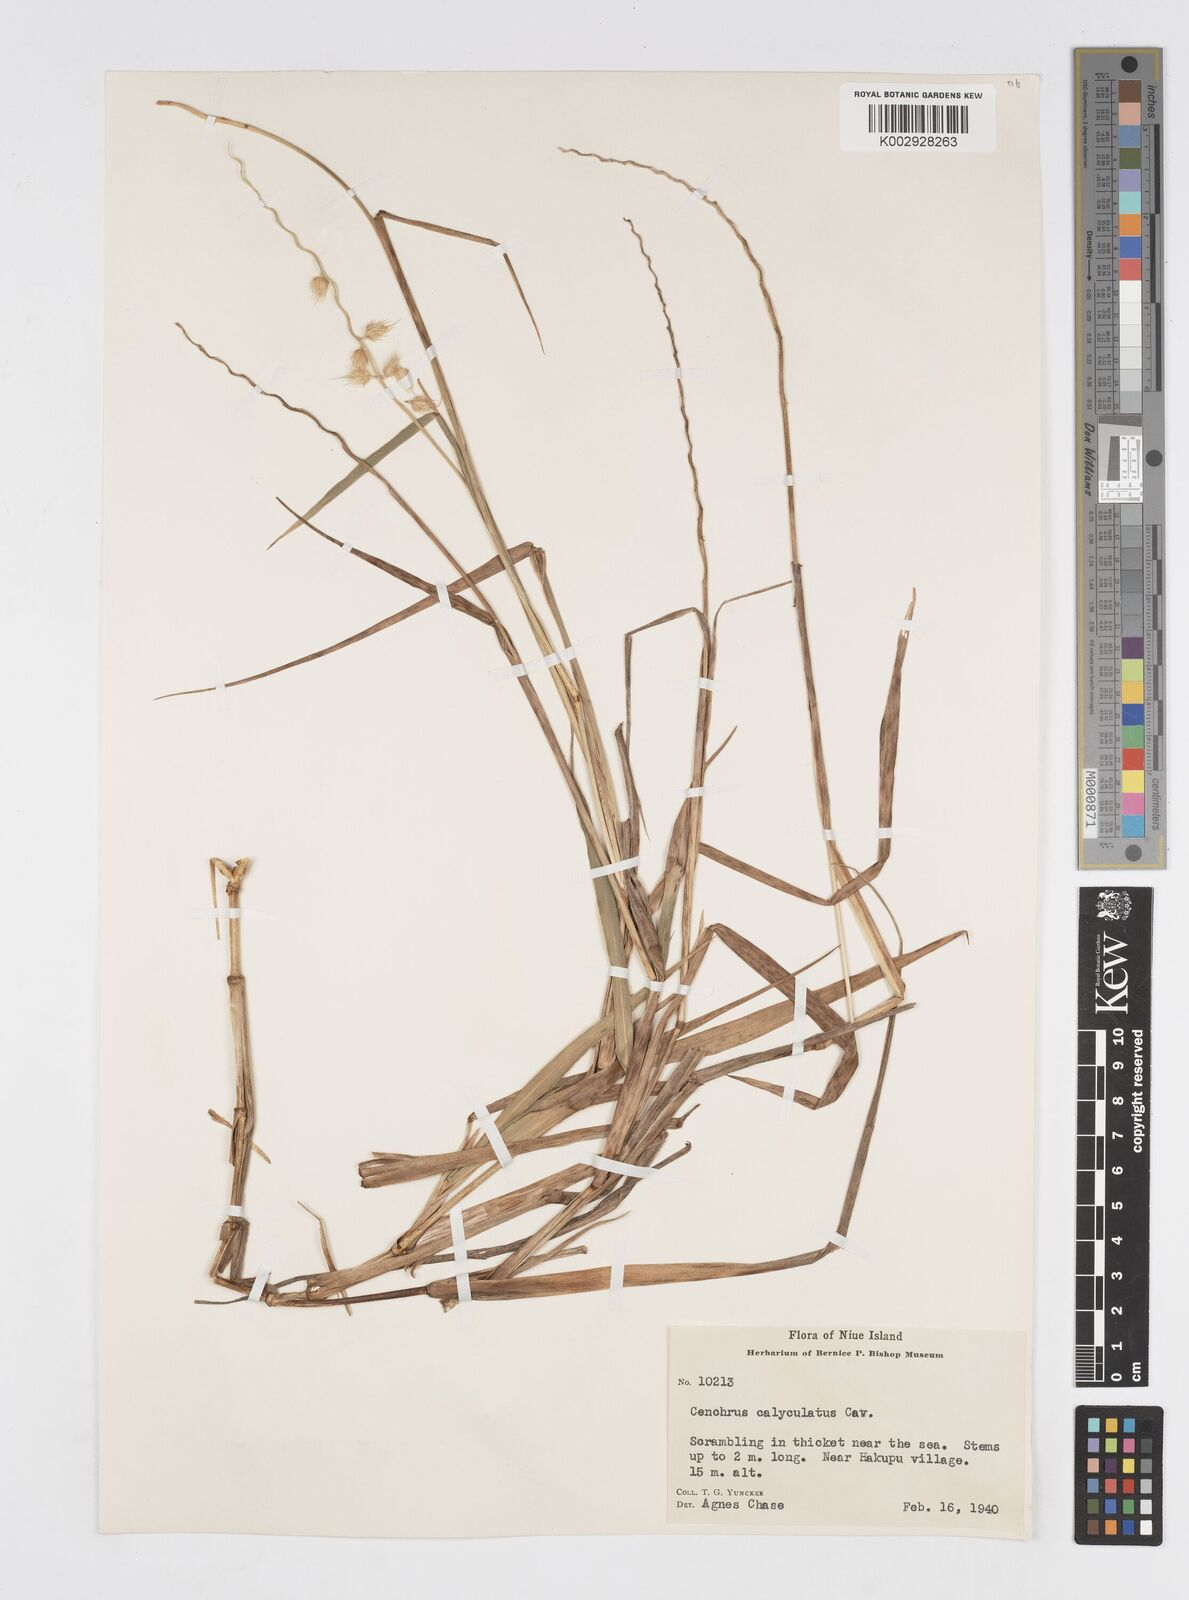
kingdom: Plantae
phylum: Tracheophyta
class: Liliopsida
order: Poales
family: Poaceae
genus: Cenchrus
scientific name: Cenchrus caliculatus
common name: Large bur grass
